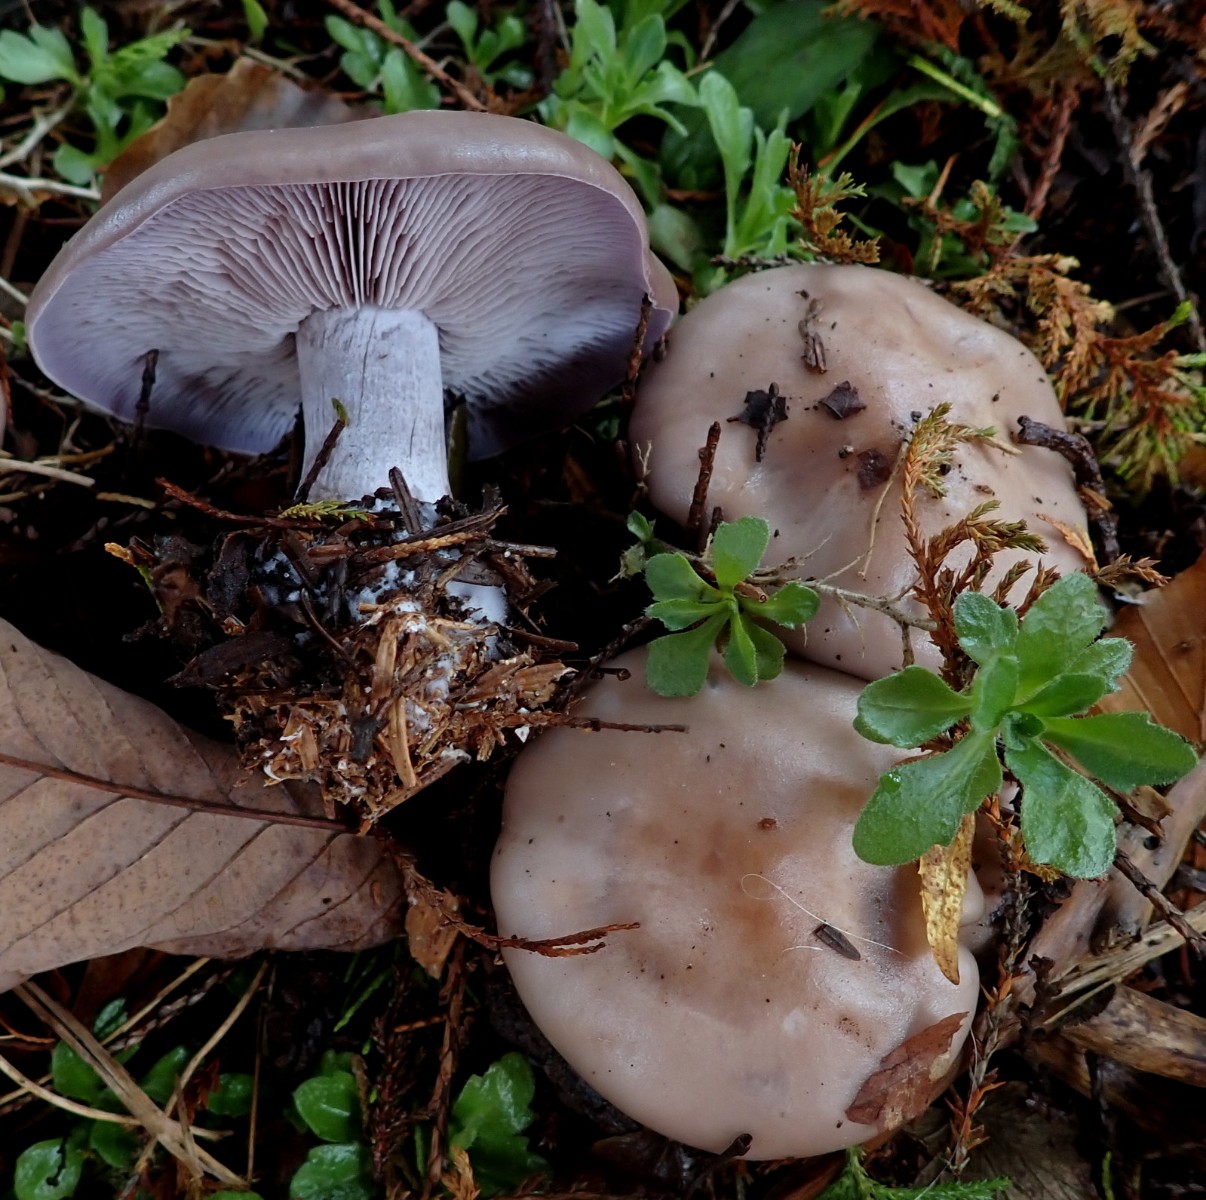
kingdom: Fungi
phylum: Basidiomycota
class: Agaricomycetes
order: Agaricales
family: Tricholomataceae
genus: Lepista
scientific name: Lepista nuda
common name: violet hekseringshat
